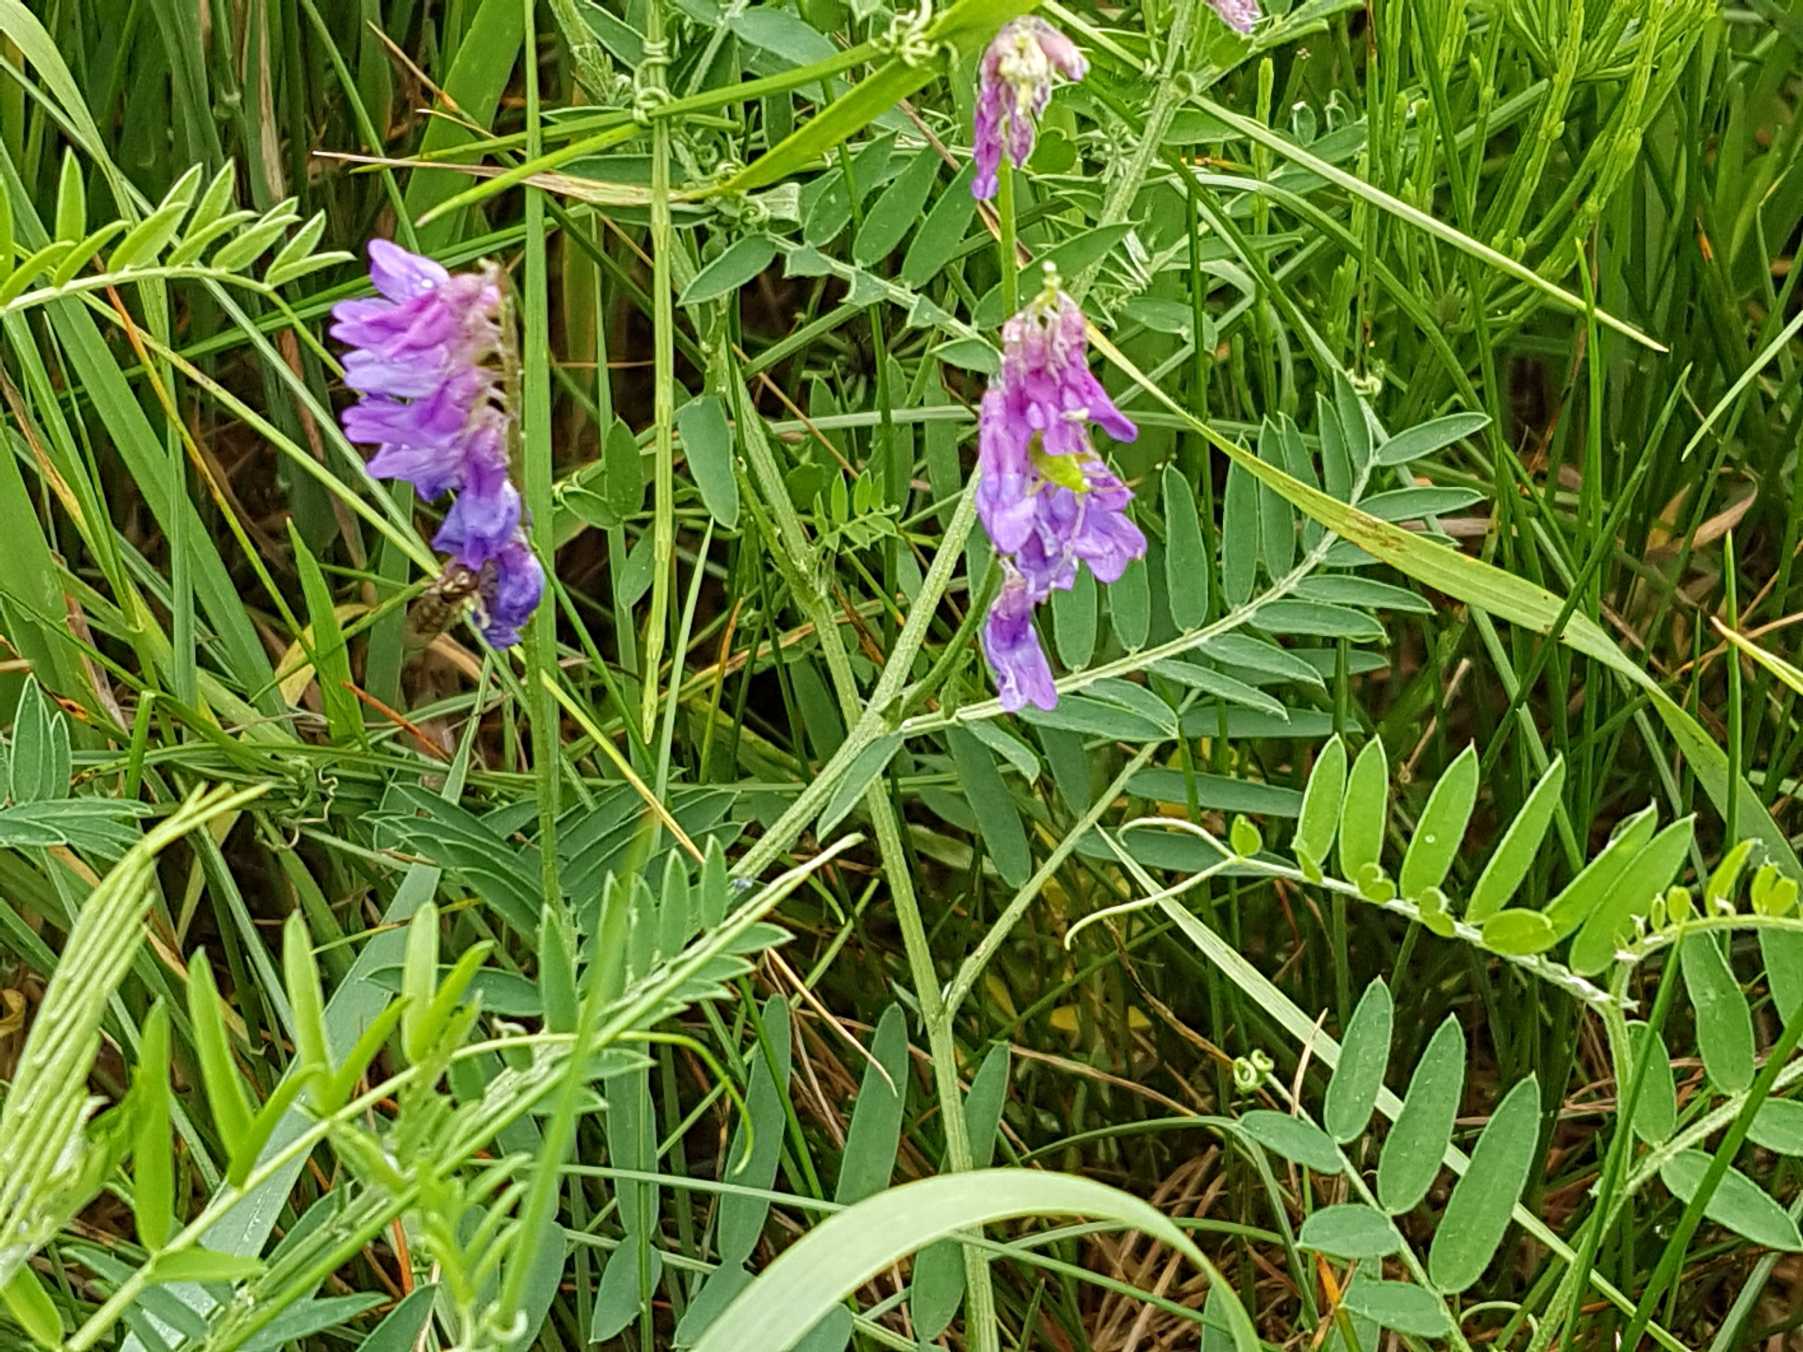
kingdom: Plantae
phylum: Tracheophyta
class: Magnoliopsida
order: Fabales
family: Fabaceae
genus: Vicia
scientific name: Vicia cracca
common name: Muse-vikke
